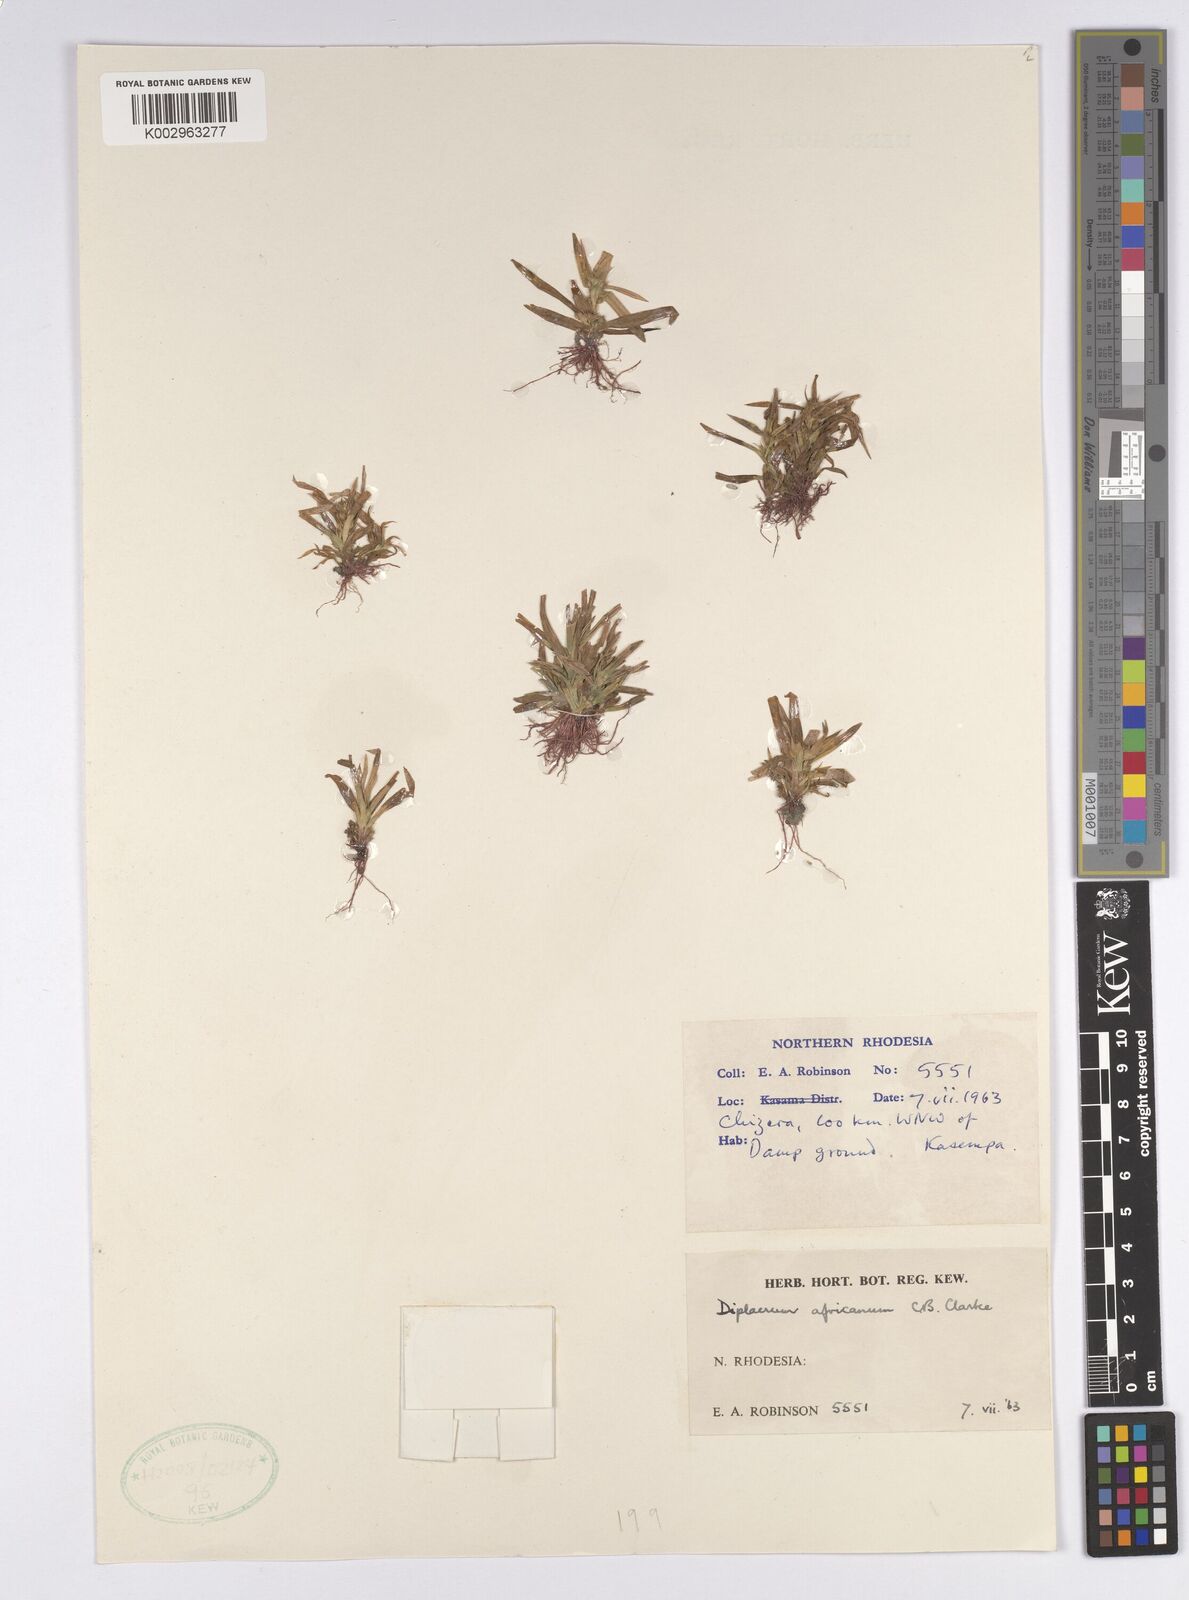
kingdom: Plantae
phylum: Tracheophyta
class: Liliopsida
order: Poales
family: Cyperaceae
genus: Diplacrum
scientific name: Diplacrum africanum
